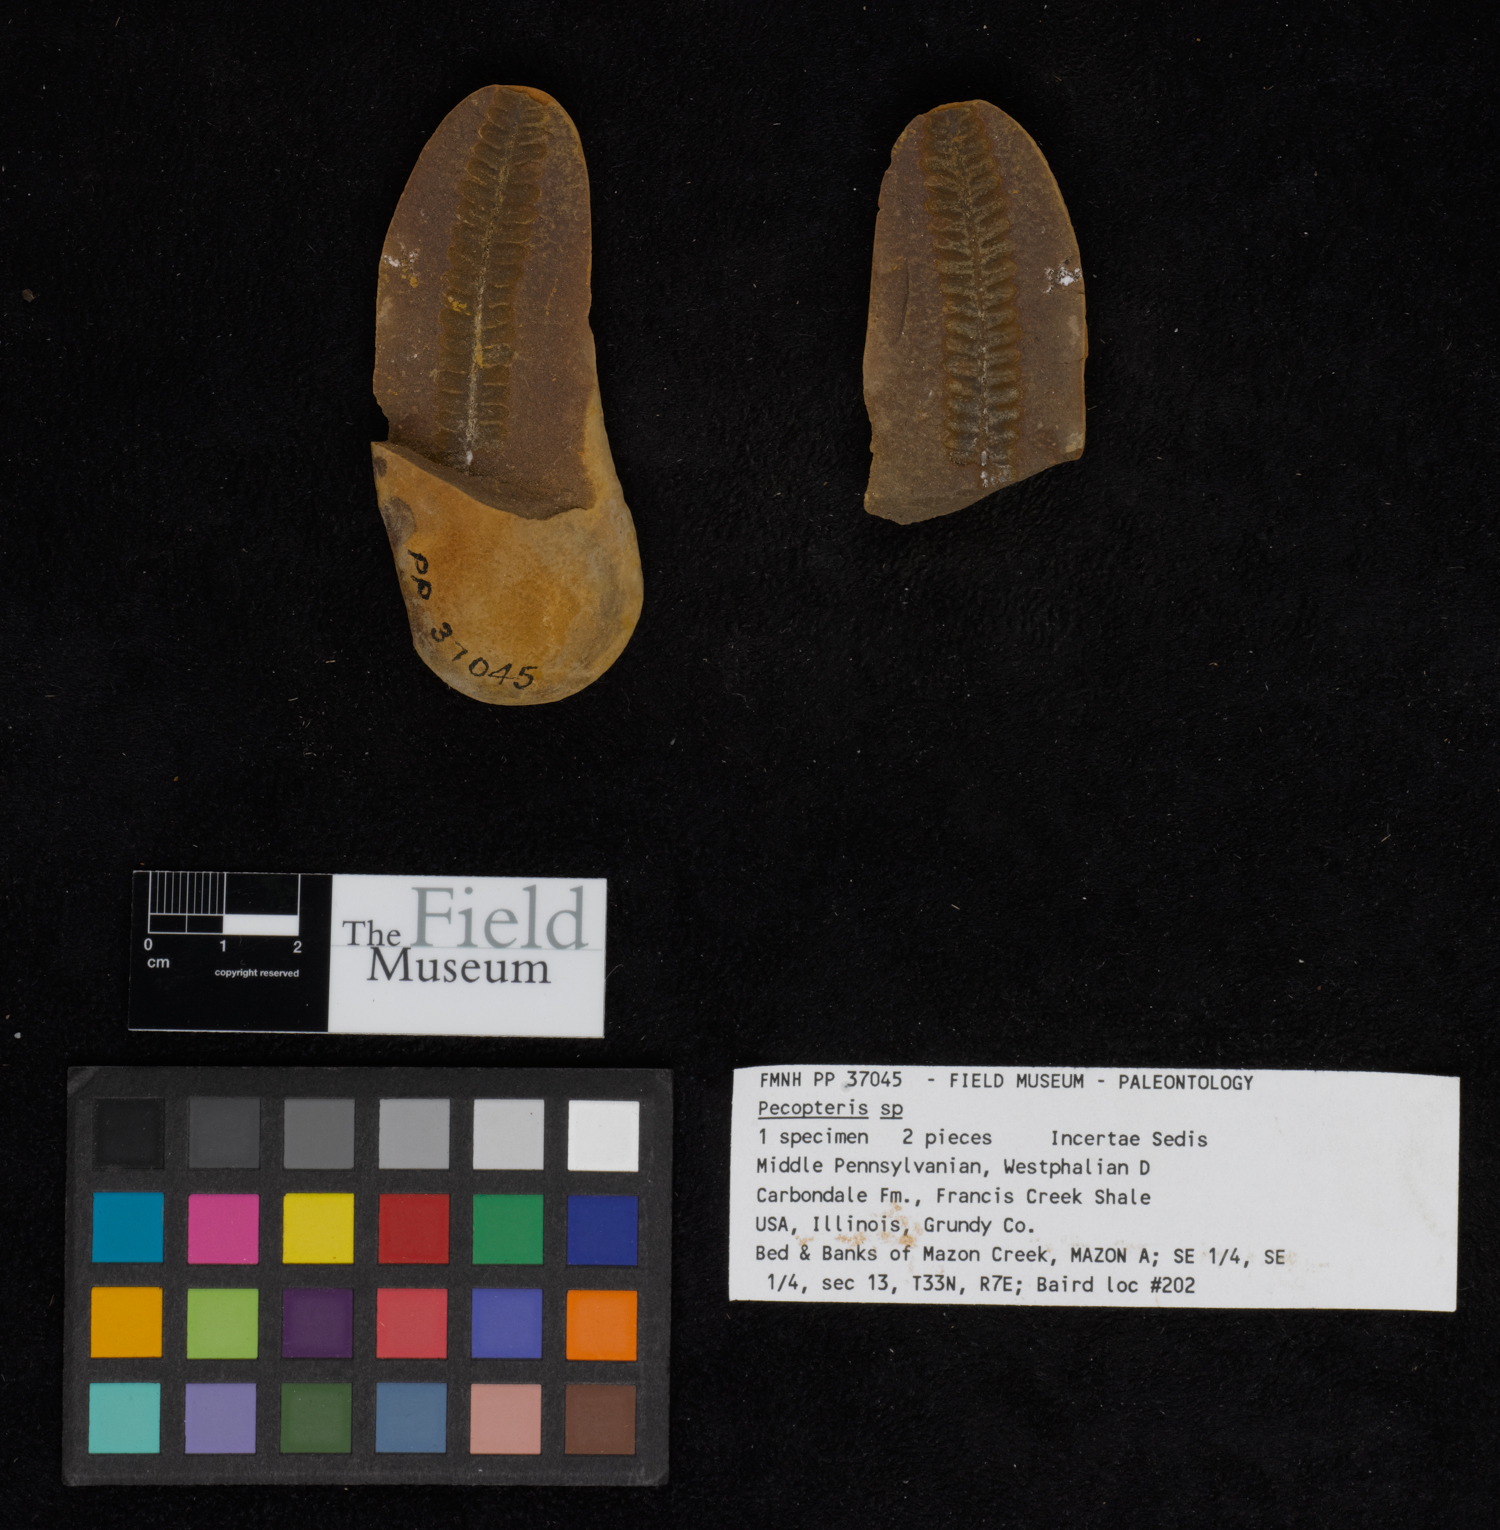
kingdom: Plantae
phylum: Tracheophyta
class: Polypodiopsida
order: Marattiales
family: Asterothecaceae
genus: Pecopteris
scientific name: Pecopteris
